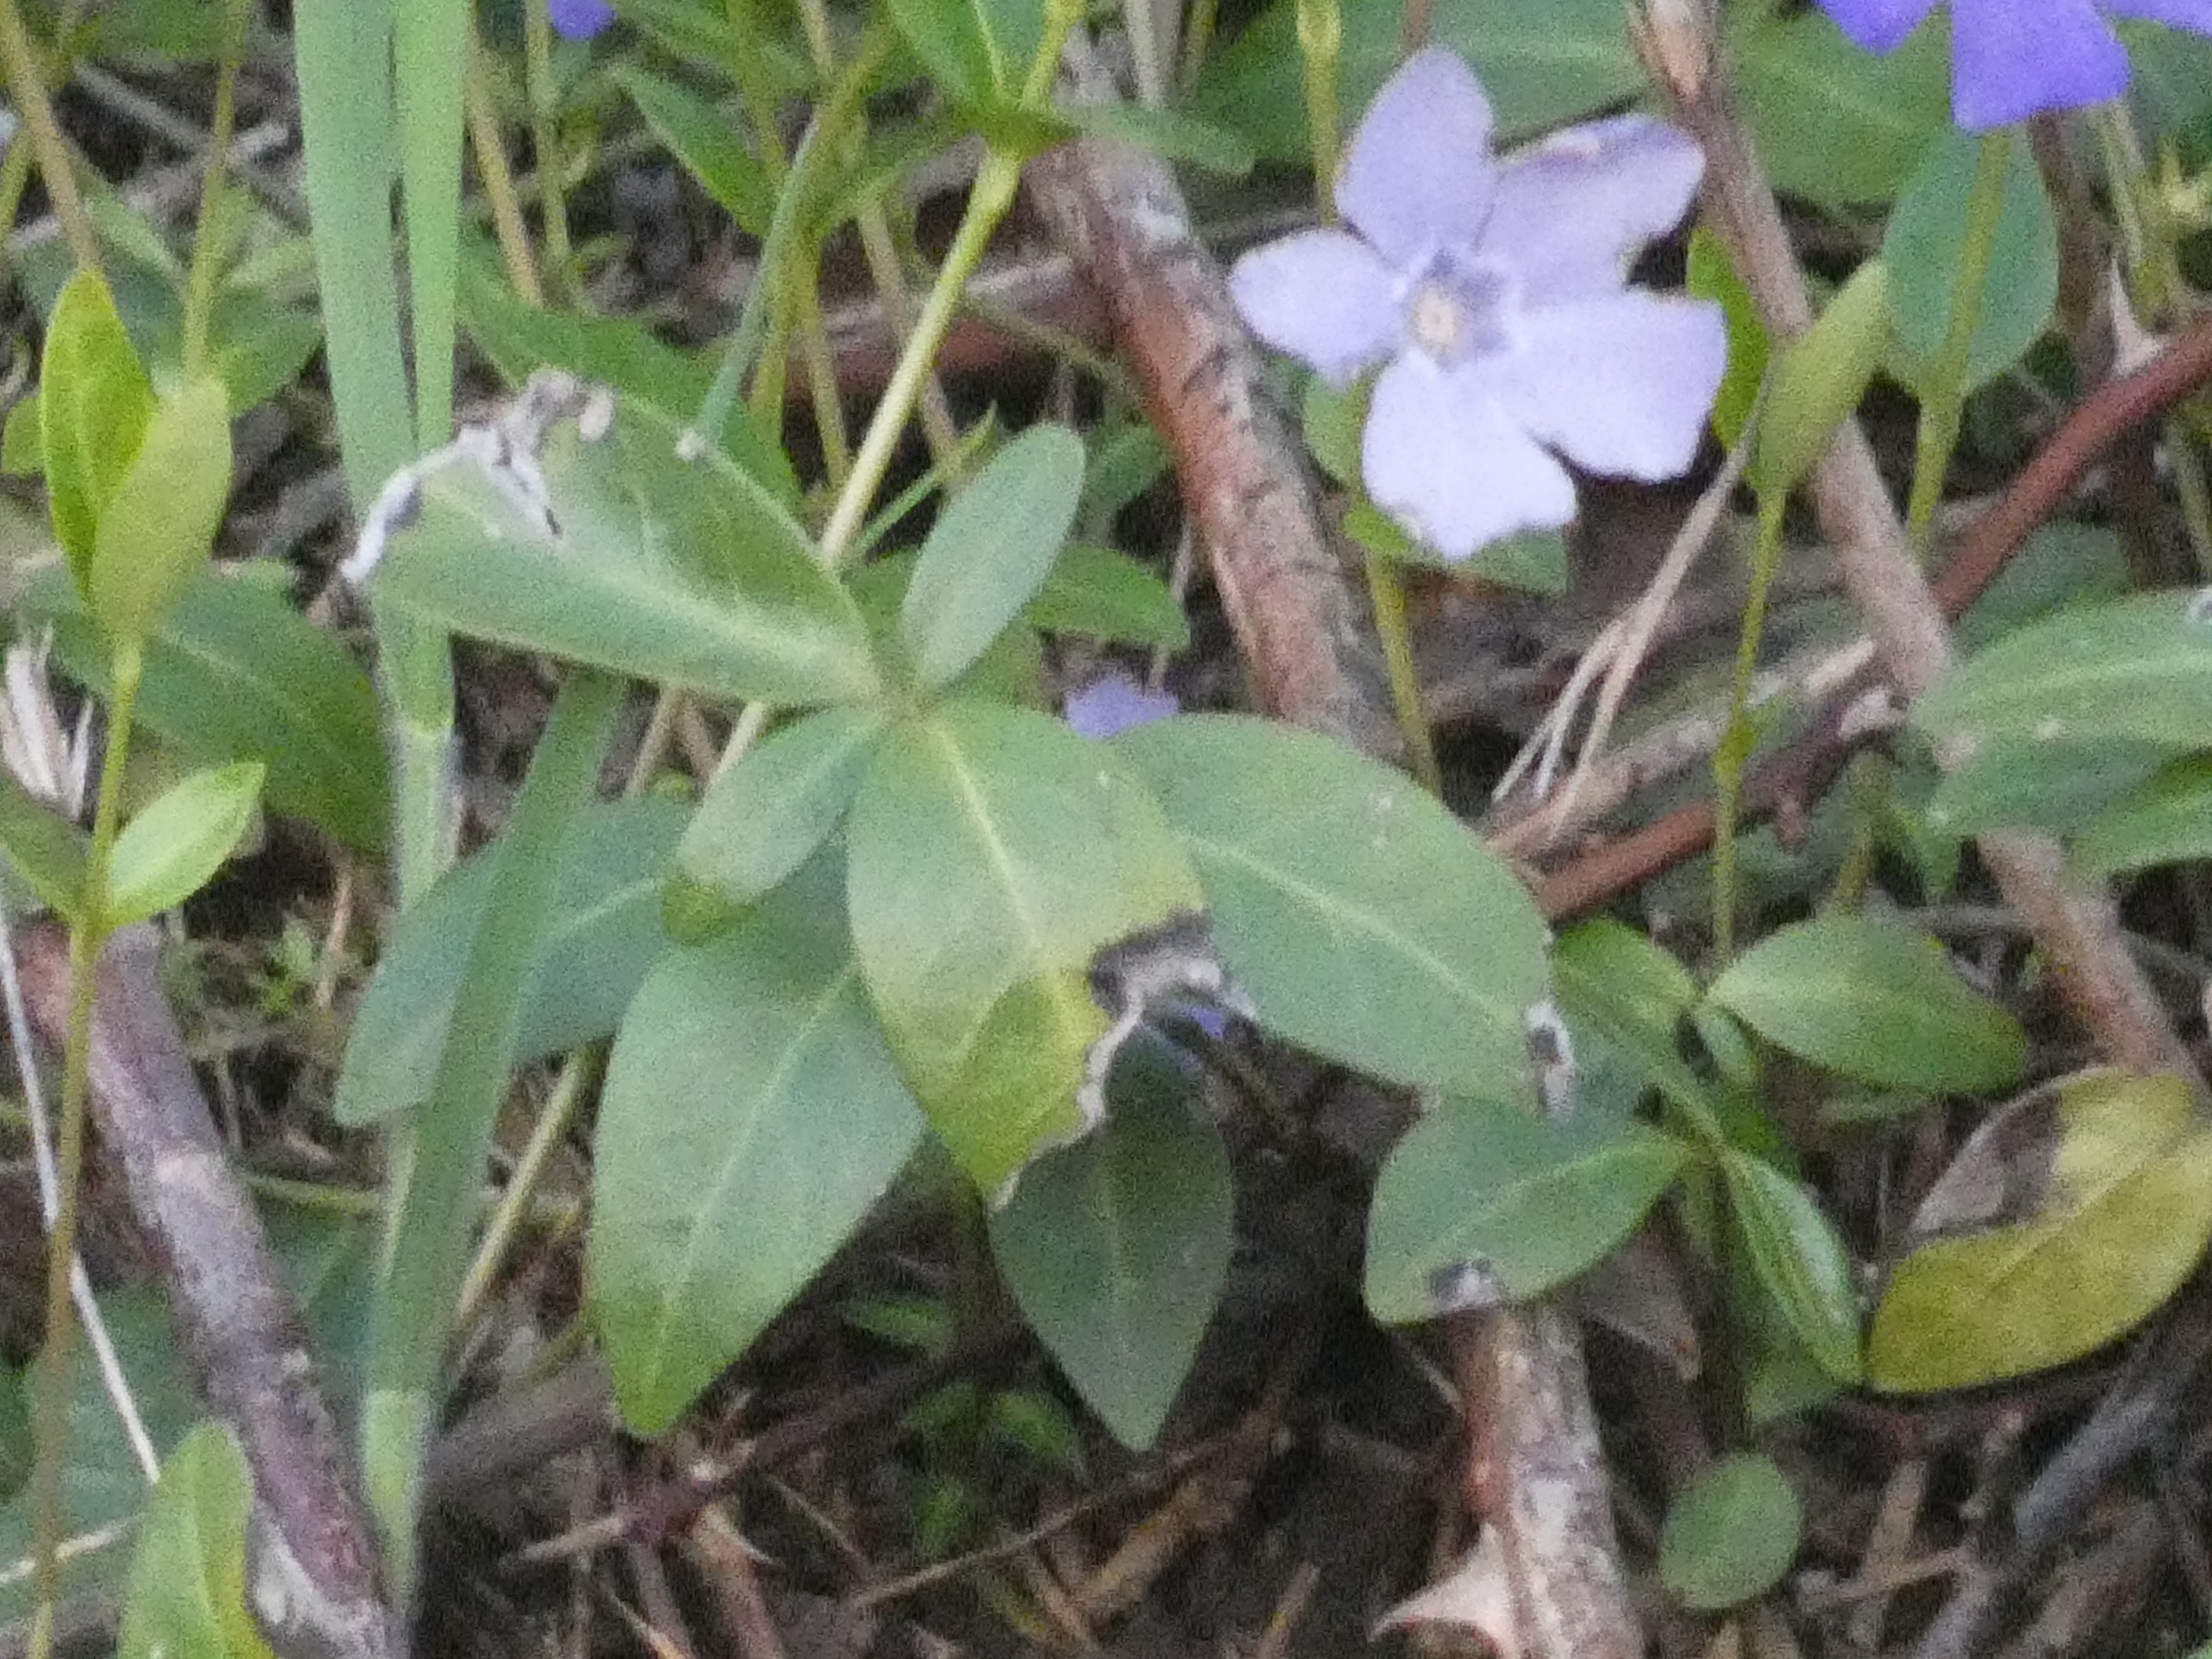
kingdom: Plantae
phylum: Tracheophyta
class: Magnoliopsida
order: Gentianales
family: Apocynaceae
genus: Vinca
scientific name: Vinca minor
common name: Liden singrøn
